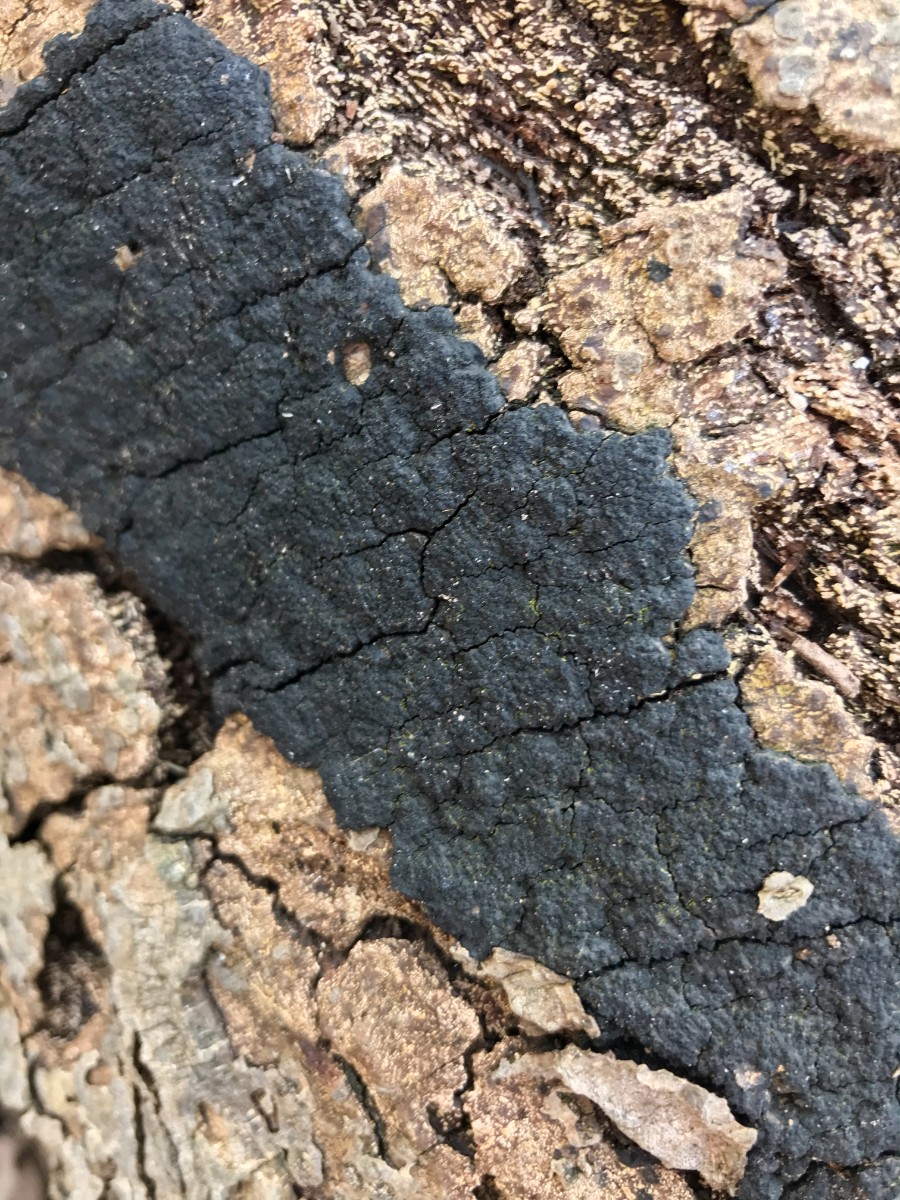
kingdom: Fungi
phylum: Ascomycota
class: Sordariomycetes
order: Xylariales
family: Diatrypaceae
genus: Eutypa
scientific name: Eutypa spinosa
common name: grov kulskorpe
